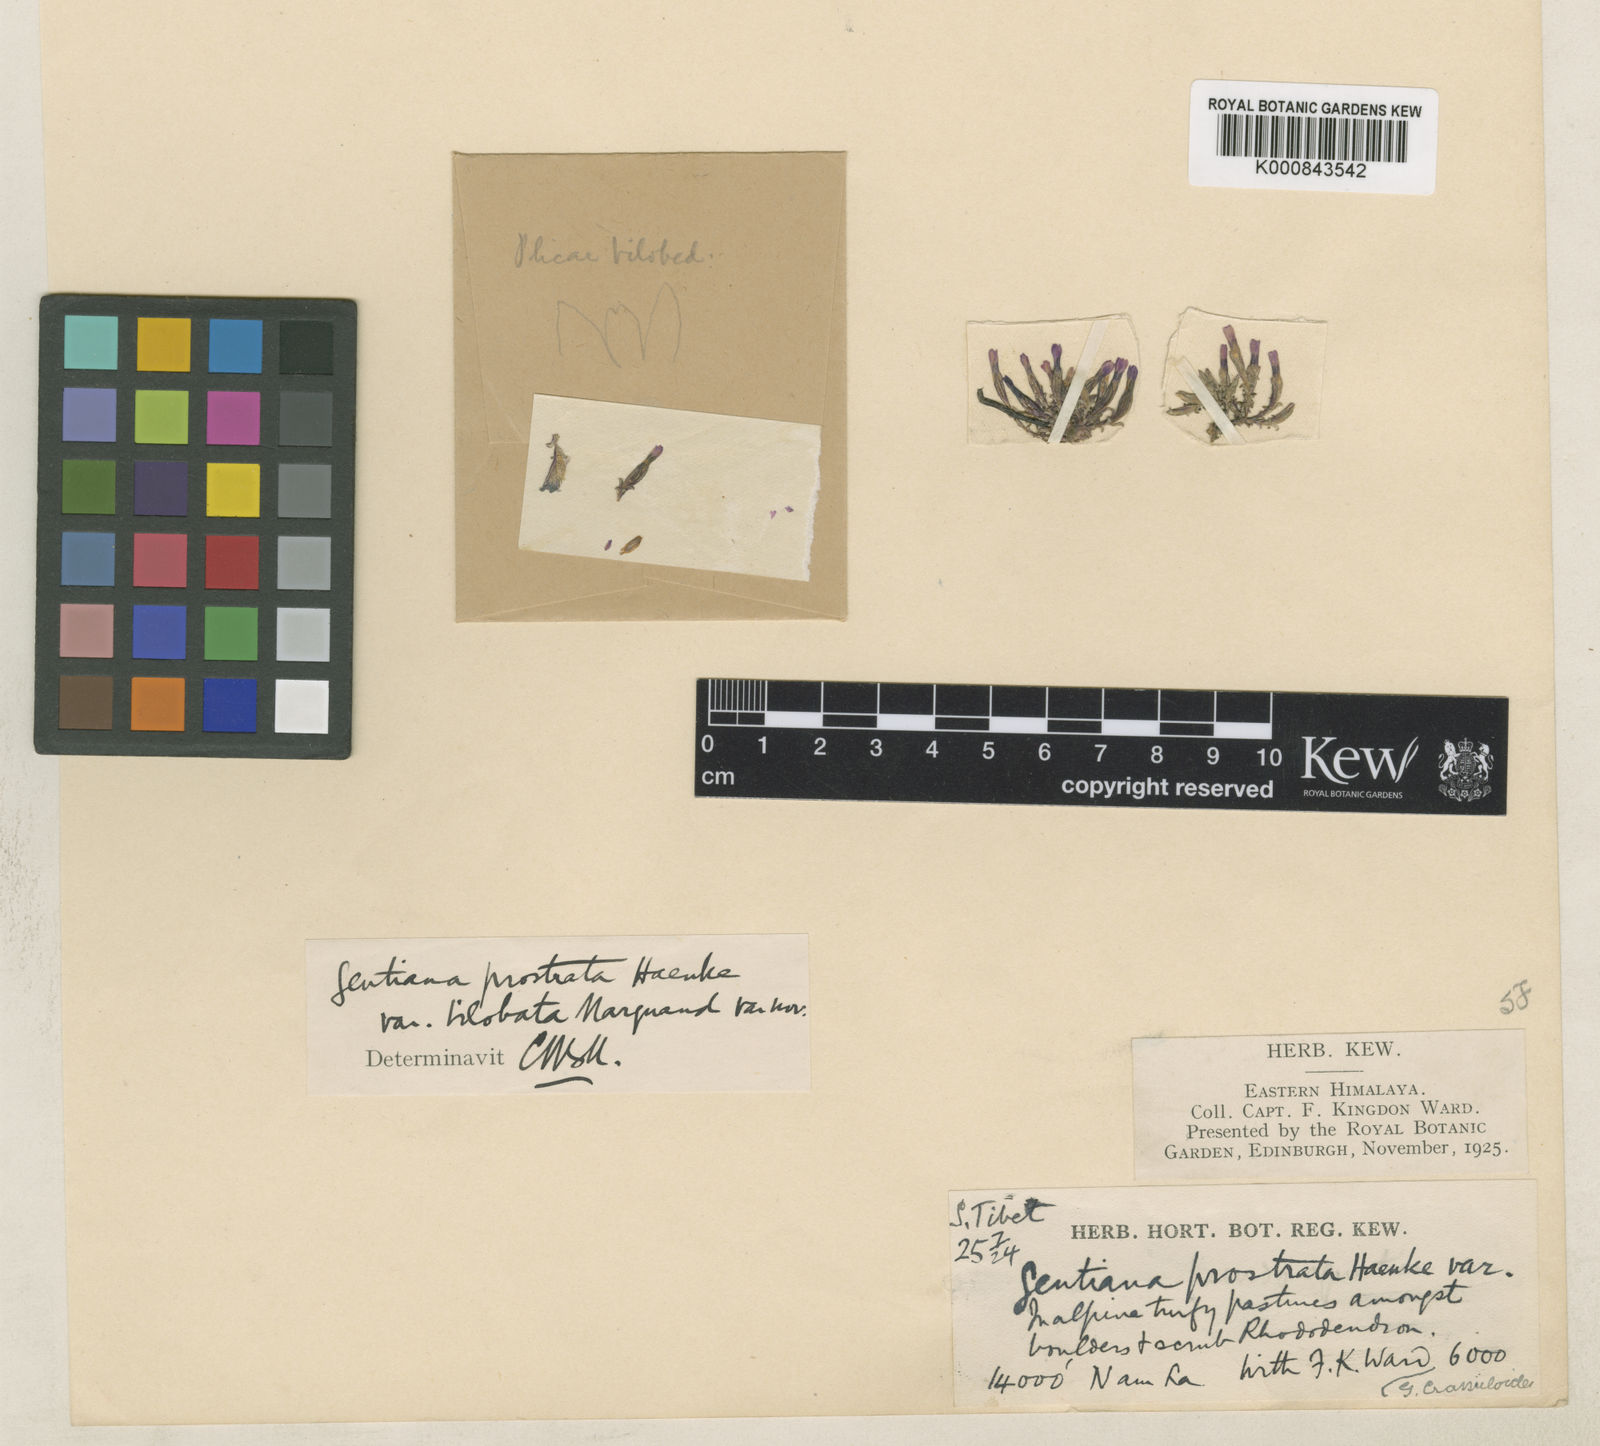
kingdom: Plantae
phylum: Tracheophyta
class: Magnoliopsida
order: Gentianales
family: Gentianaceae
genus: Gentiana
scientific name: Gentiana
